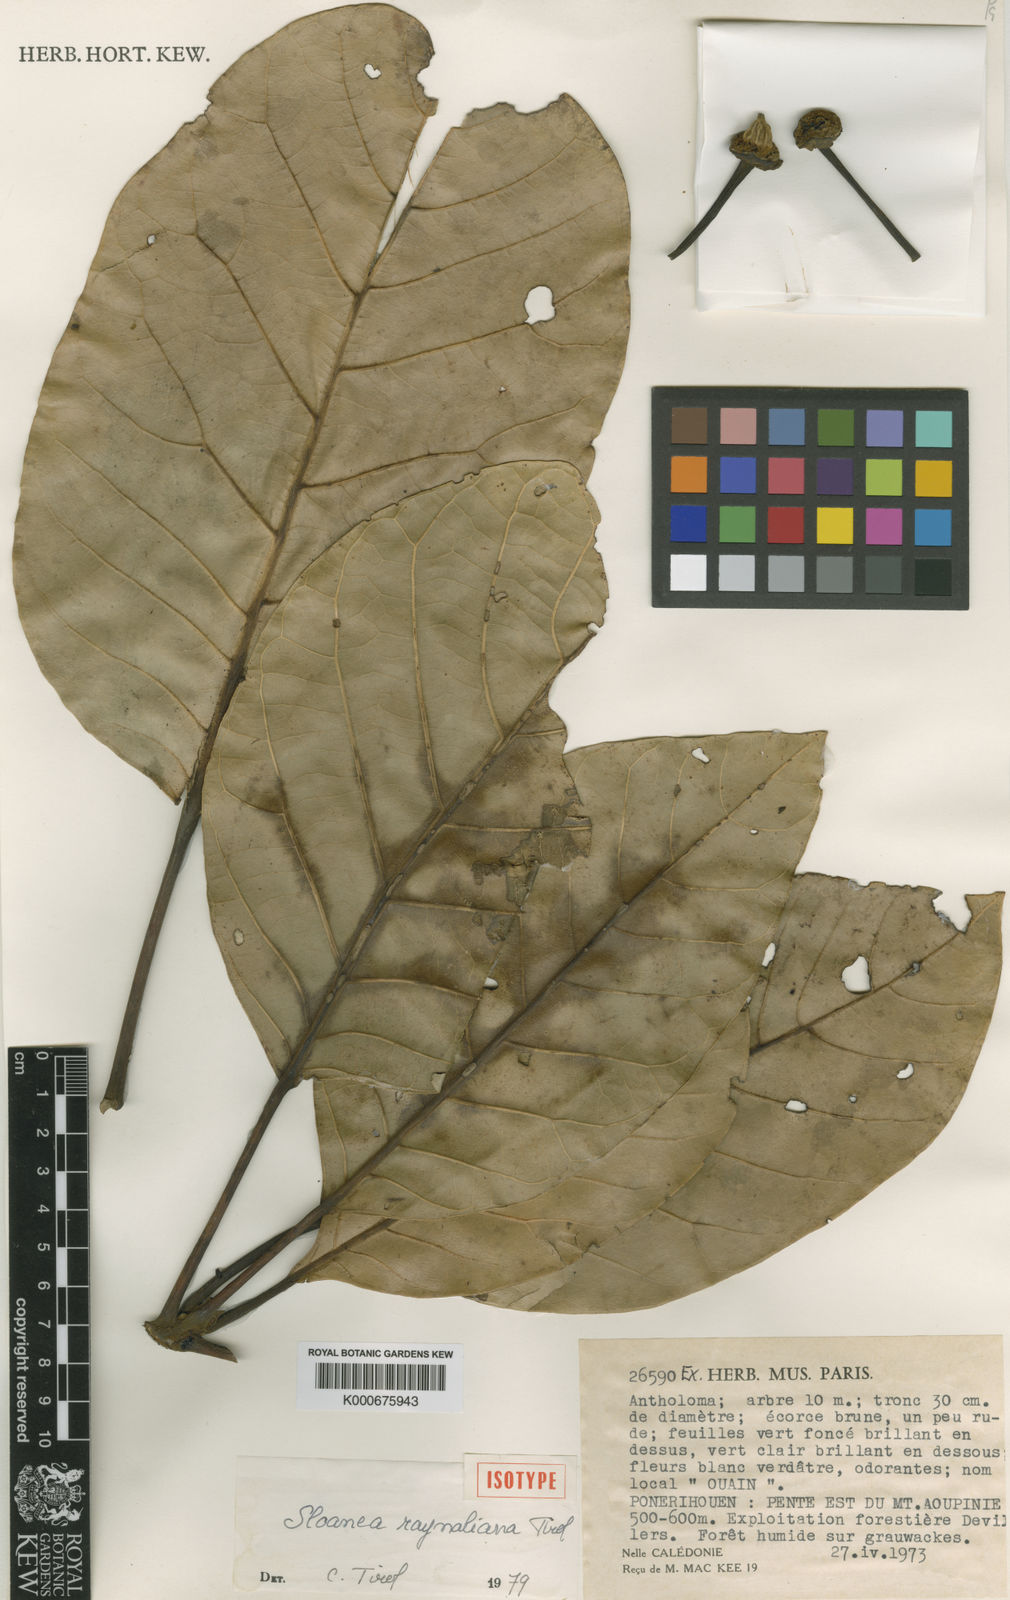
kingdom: Plantae
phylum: Tracheophyta
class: Magnoliopsida
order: Oxalidales
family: Elaeocarpaceae
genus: Sloanea
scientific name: Sloanea raynaliana
